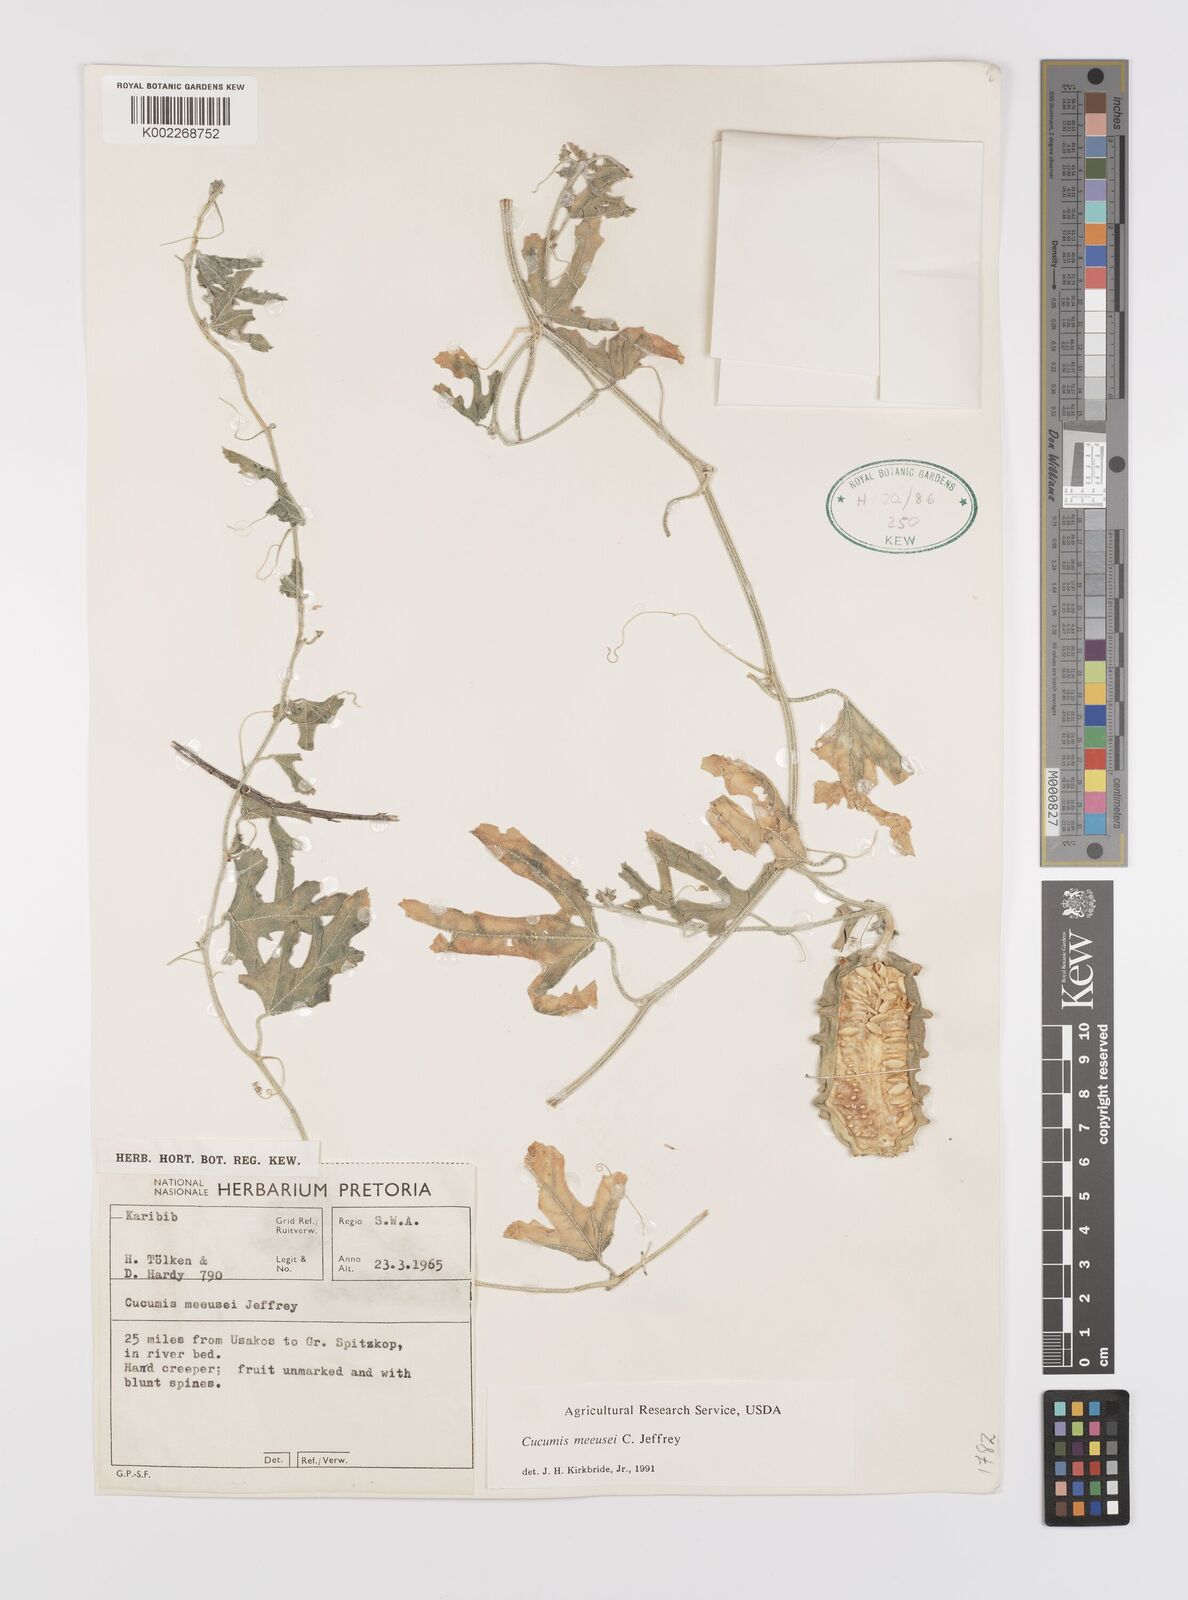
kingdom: Plantae
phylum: Tracheophyta
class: Magnoliopsida
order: Cucurbitales
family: Cucurbitaceae
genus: Cucumis
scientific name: Cucumis meeusei
